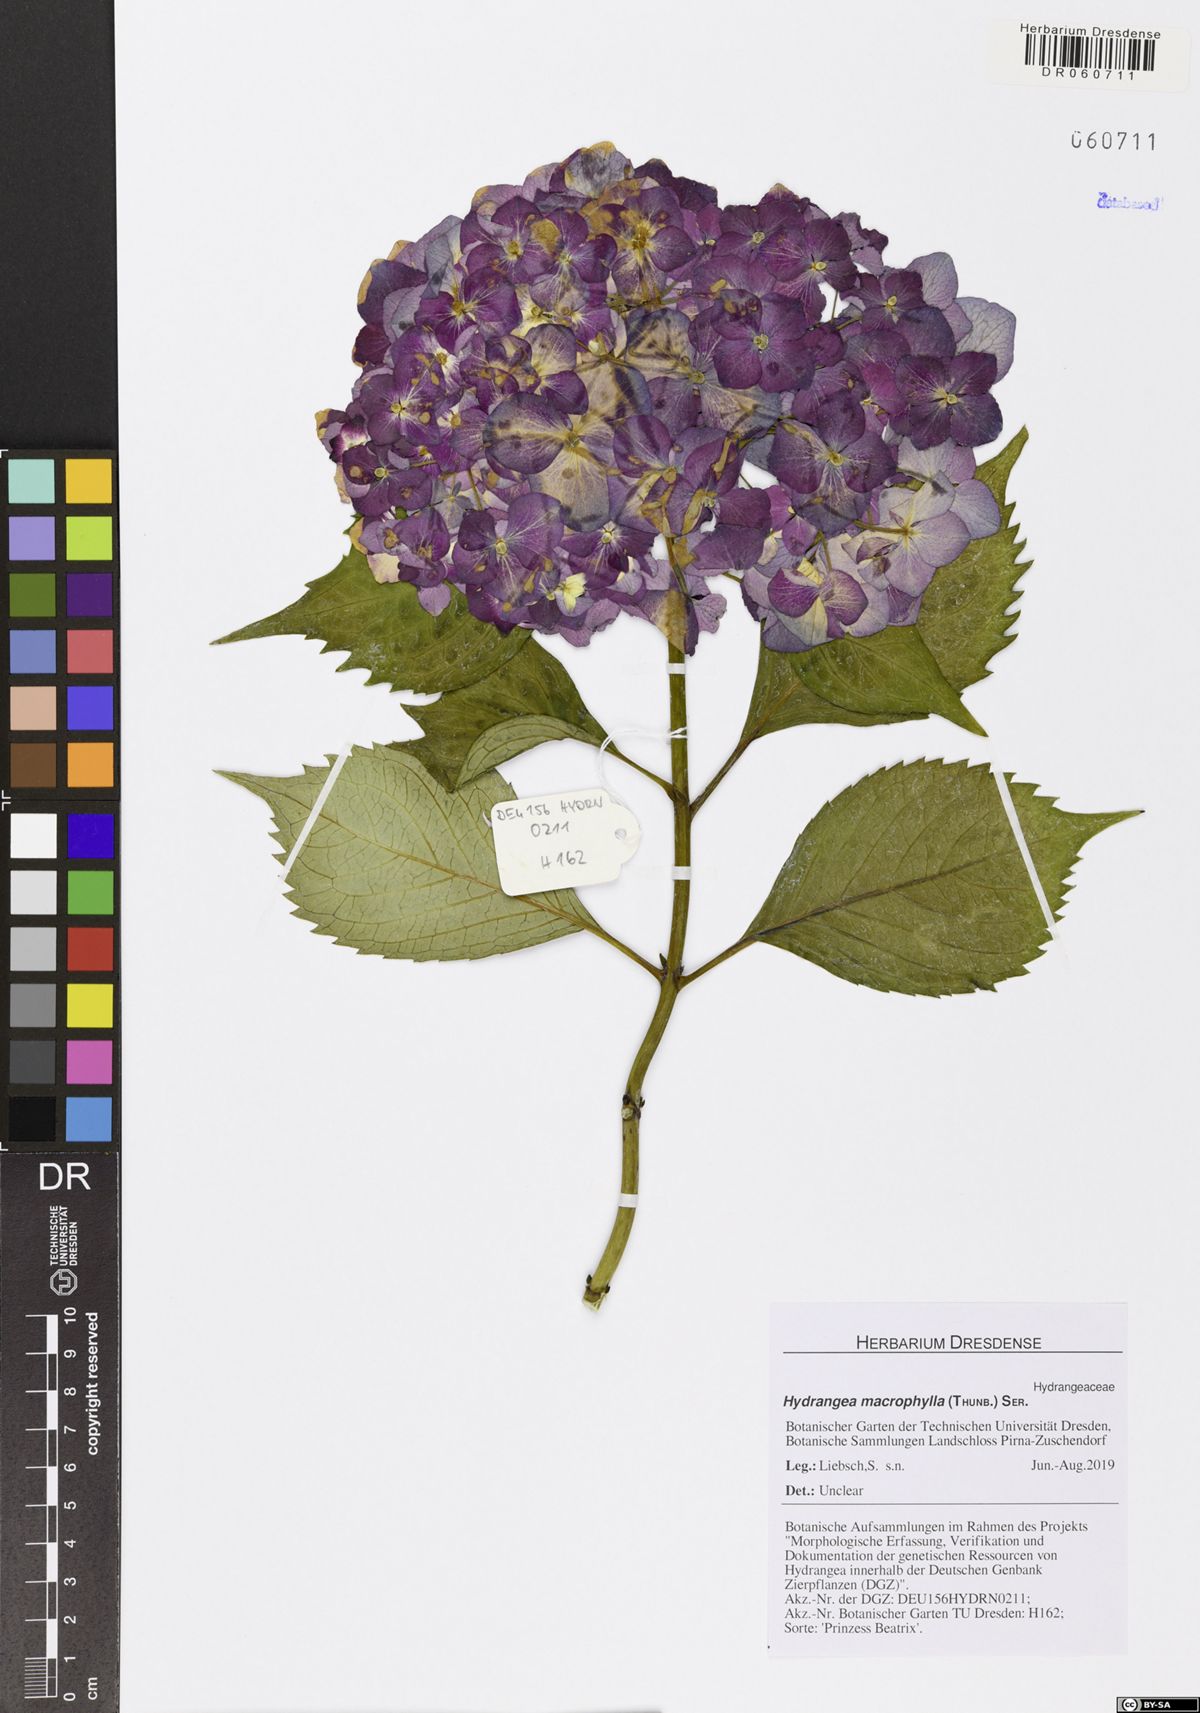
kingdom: Plantae
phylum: Tracheophyta
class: Magnoliopsida
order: Cornales
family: Hydrangeaceae
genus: Hydrangea
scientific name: Hydrangea macrophylla
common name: Hydrangea
